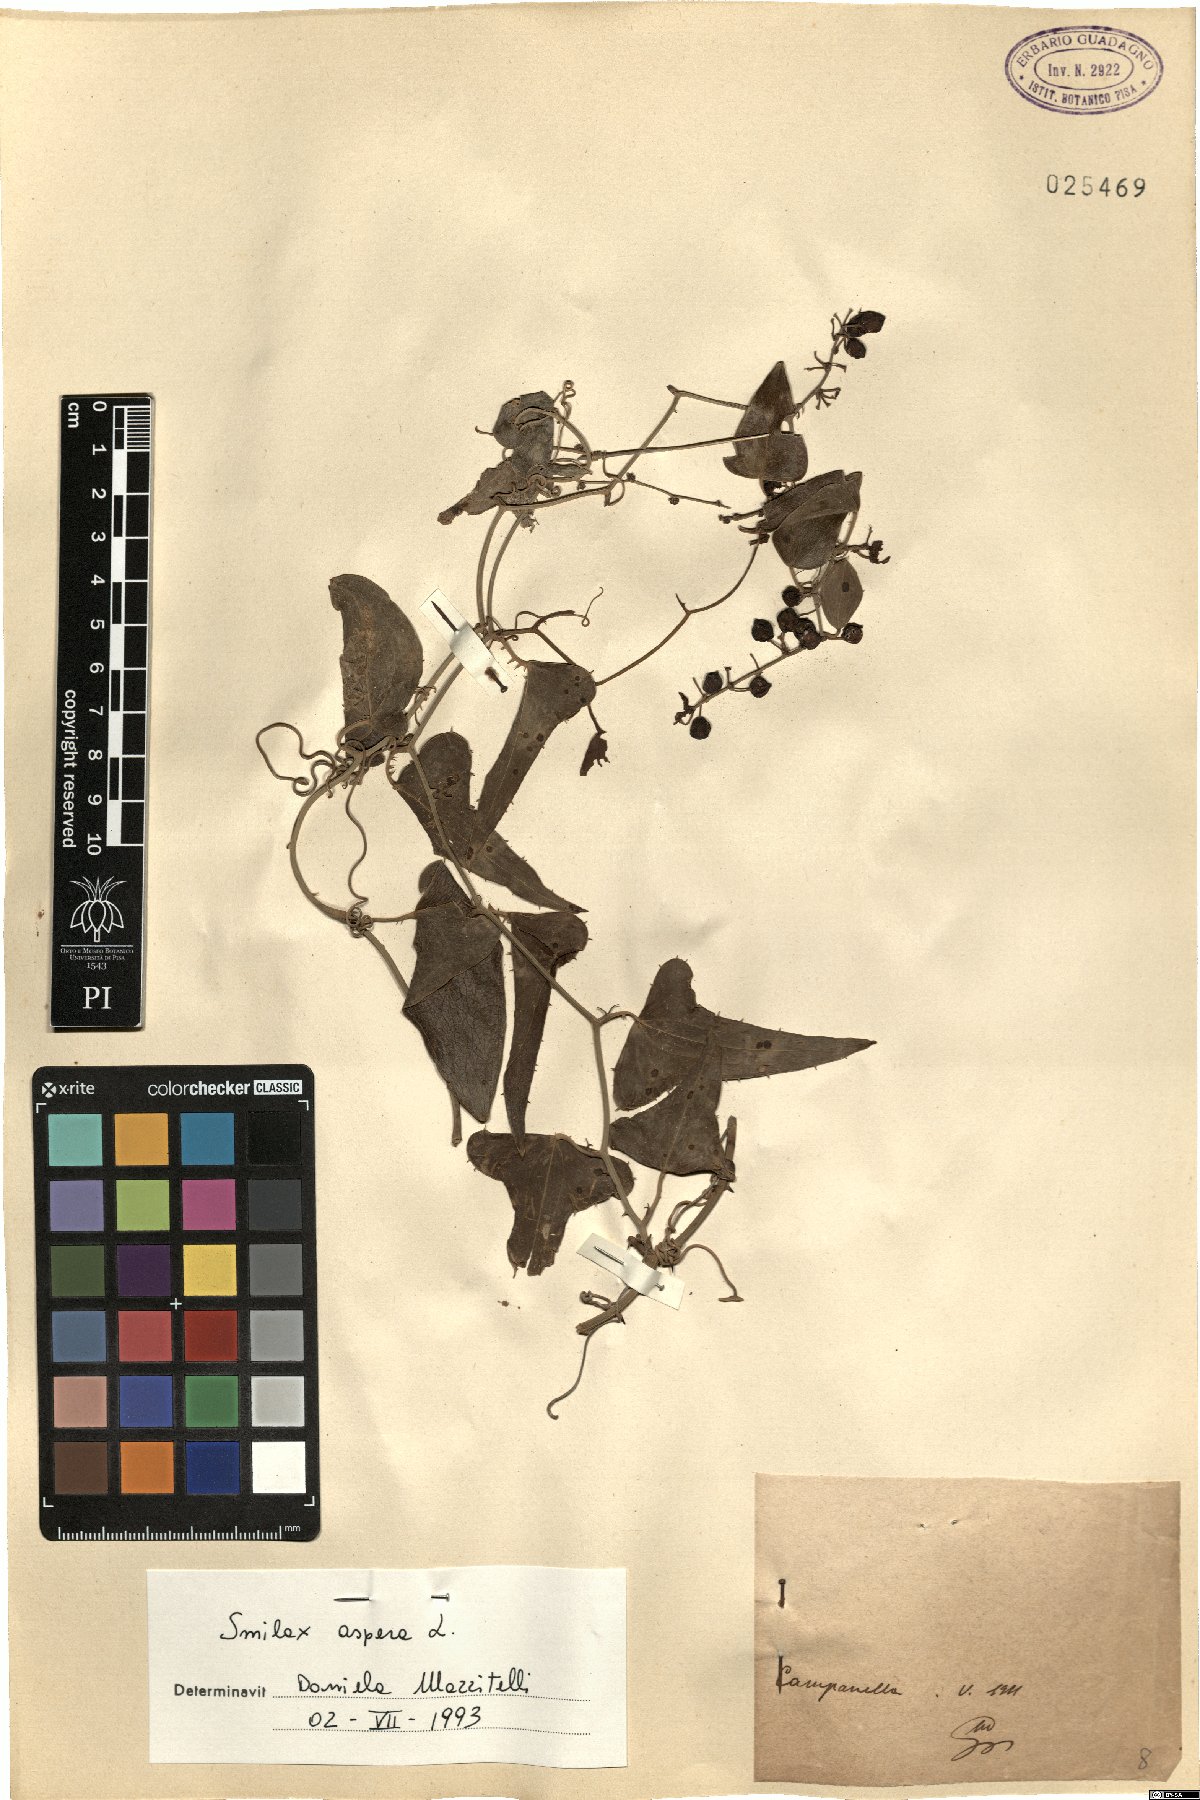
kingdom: Plantae
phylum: Tracheophyta
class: Liliopsida
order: Liliales
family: Smilacaceae
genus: Smilax
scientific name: Smilax aspera
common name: Common smilax
